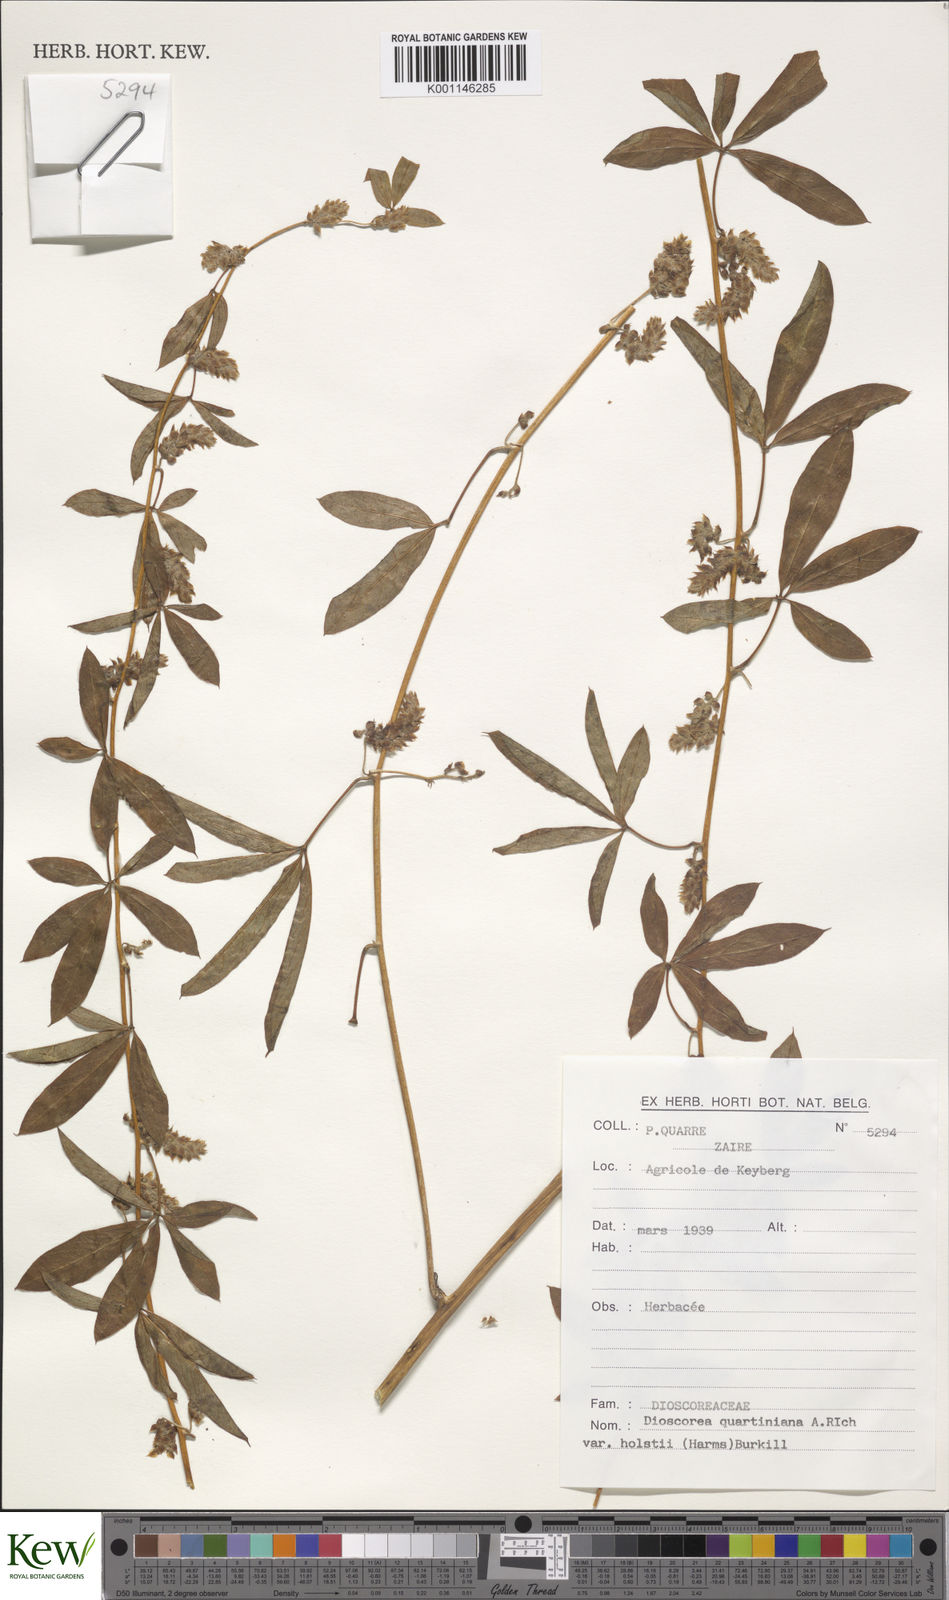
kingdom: Plantae
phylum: Tracheophyta
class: Liliopsida
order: Dioscoreales
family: Dioscoreaceae
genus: Dioscorea
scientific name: Dioscorea quartiniana
